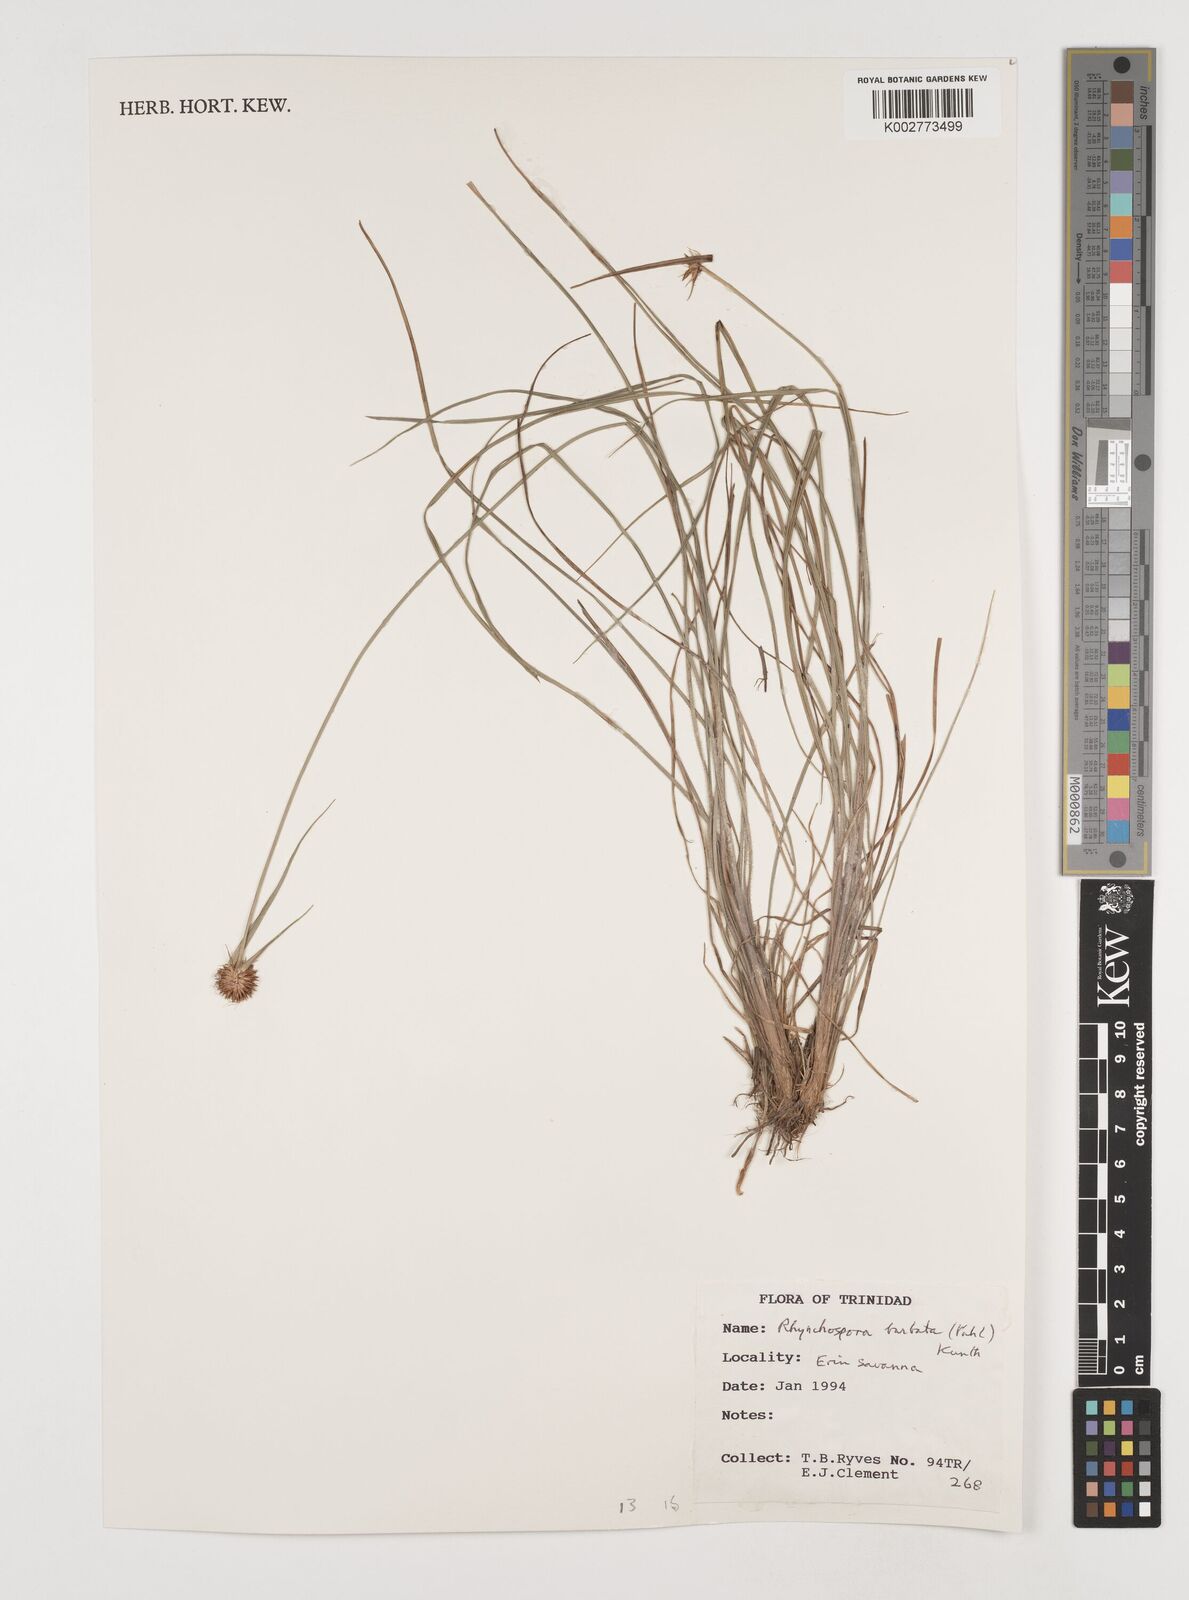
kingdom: Plantae
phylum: Tracheophyta
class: Liliopsida
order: Poales
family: Cyperaceae
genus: Rhynchospora
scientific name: Rhynchospora barbata
